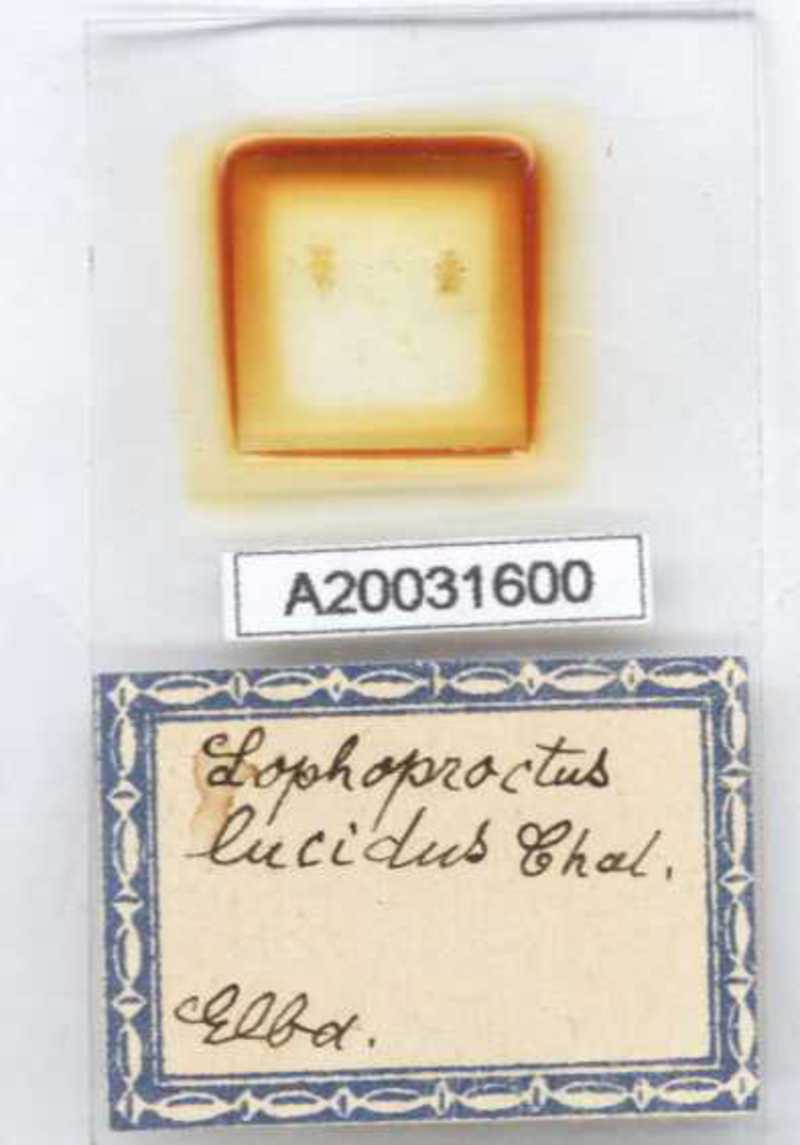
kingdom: Animalia
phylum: Arthropoda
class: Diplopoda
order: Polyxenida
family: Lophoproctidae
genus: Lophoproctus
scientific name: Lophoproctus lucidus
